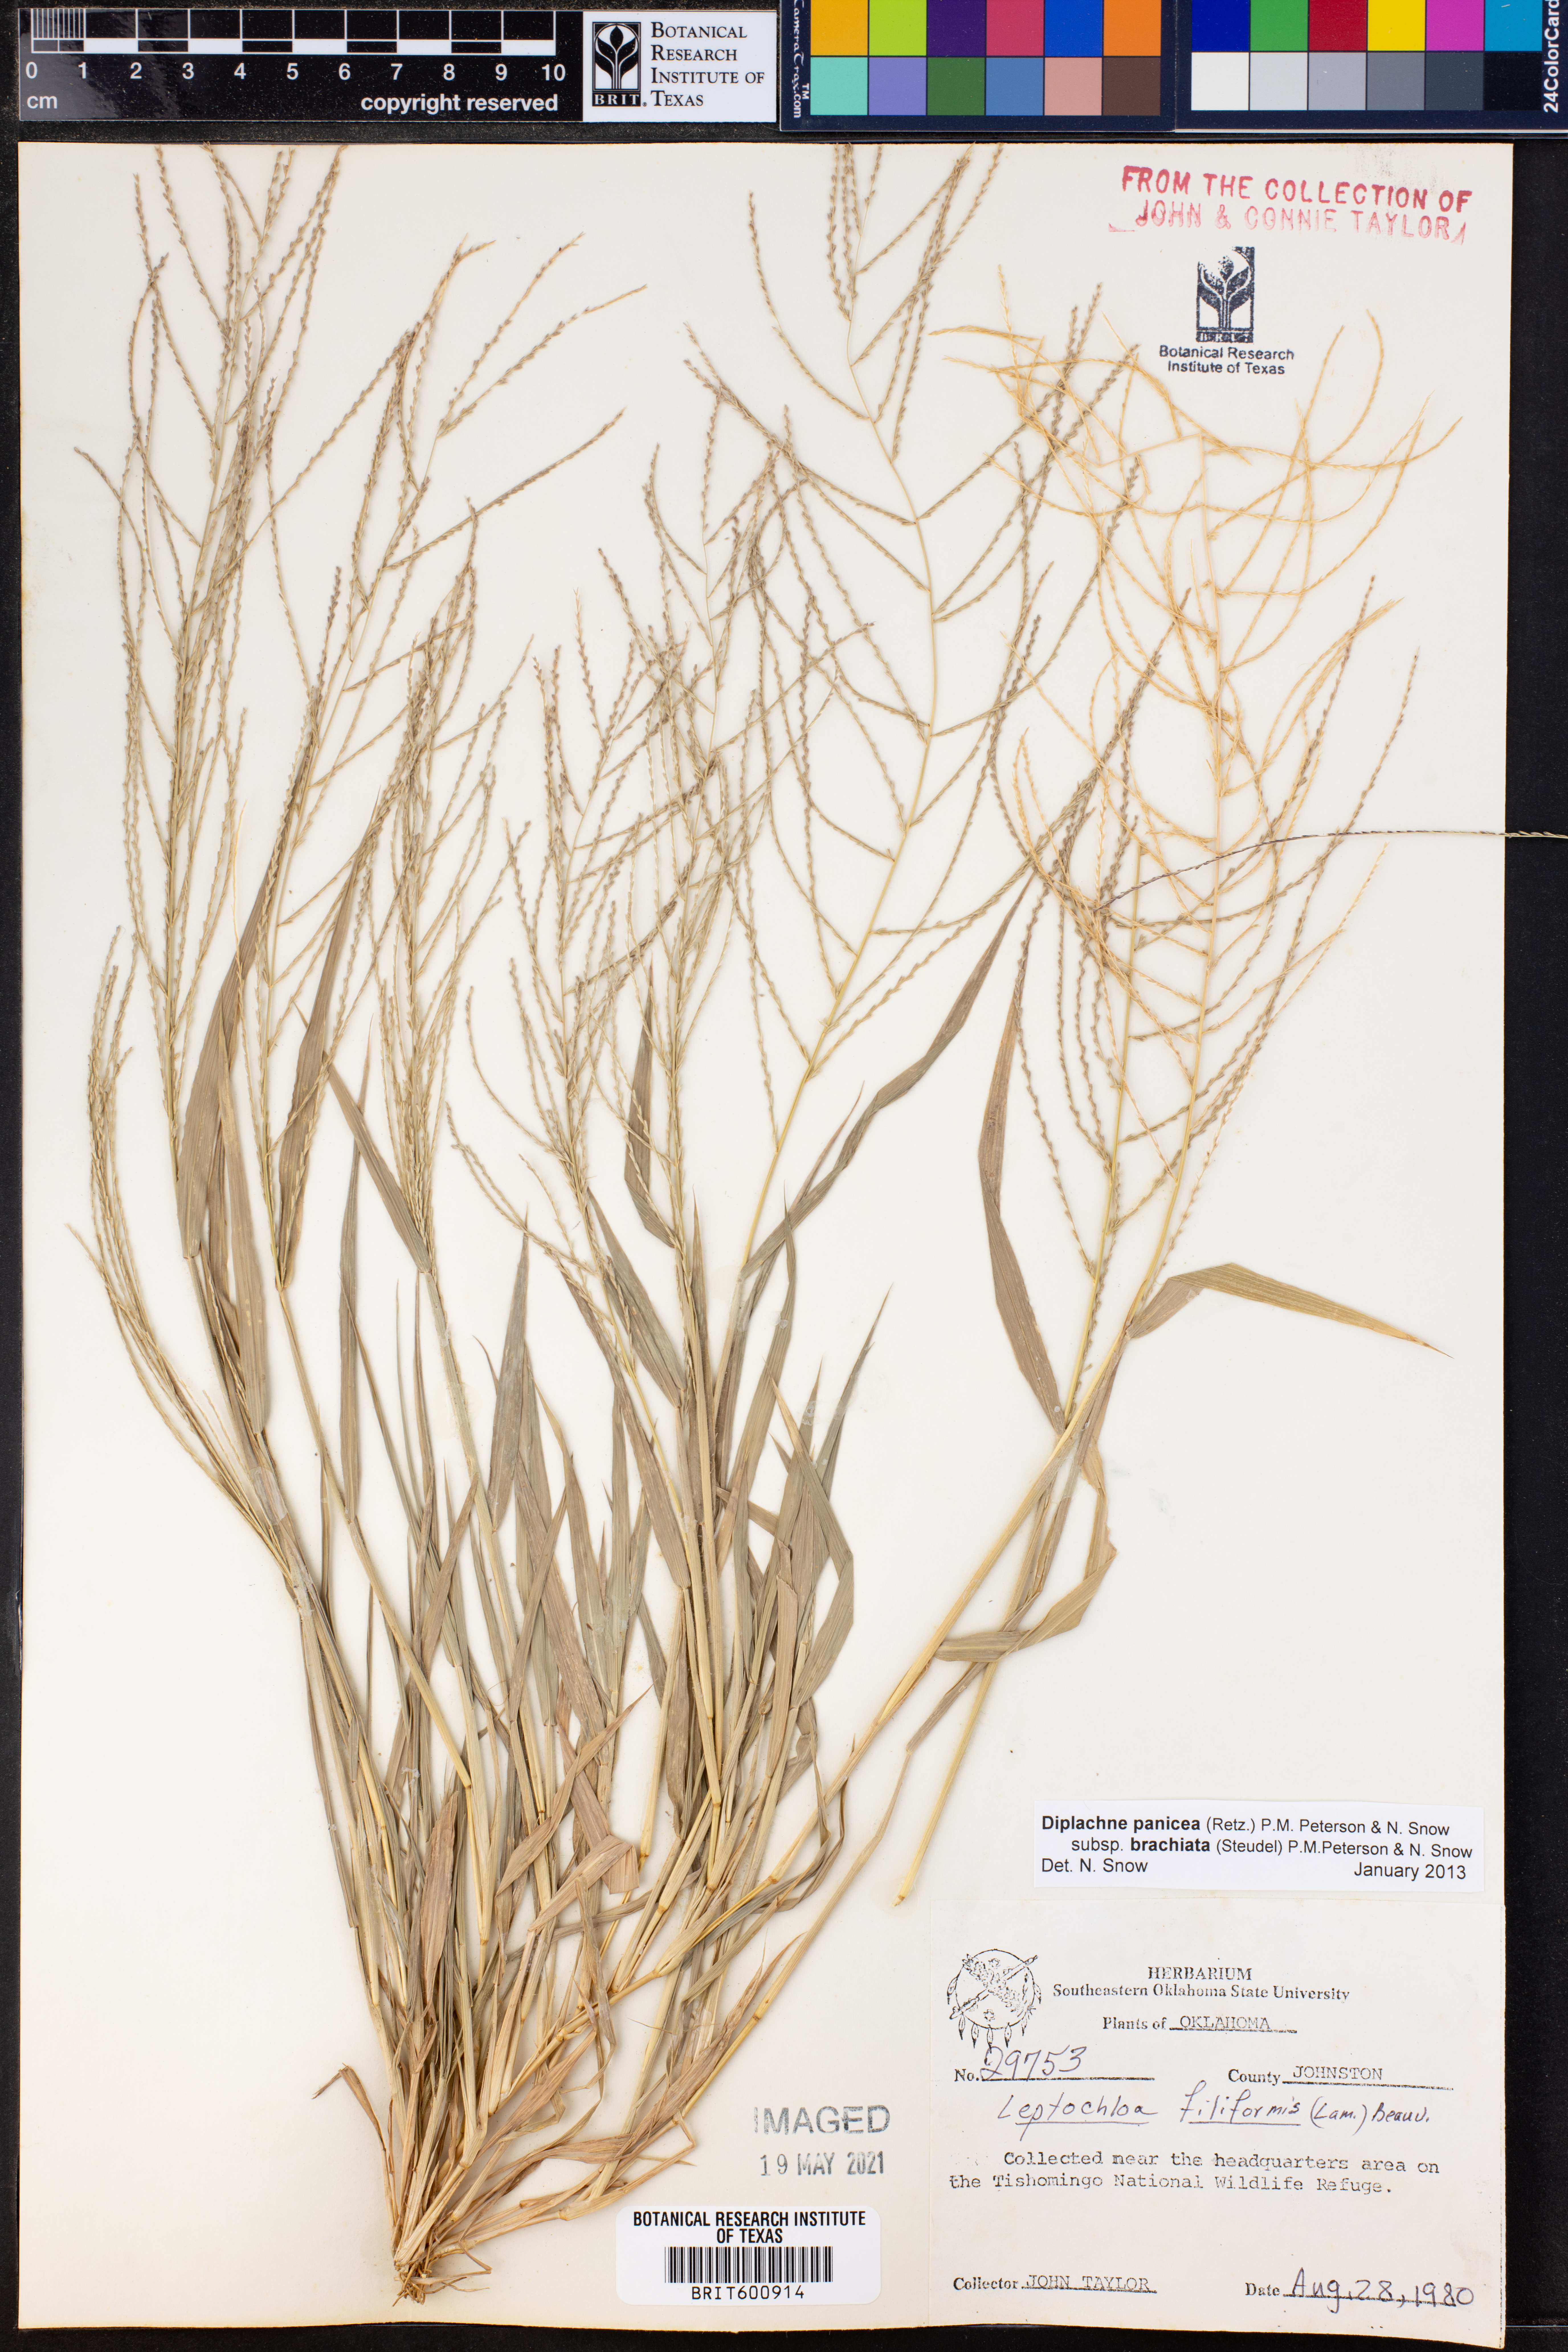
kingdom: Plantae
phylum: Tracheophyta
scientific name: Tracheophyta
